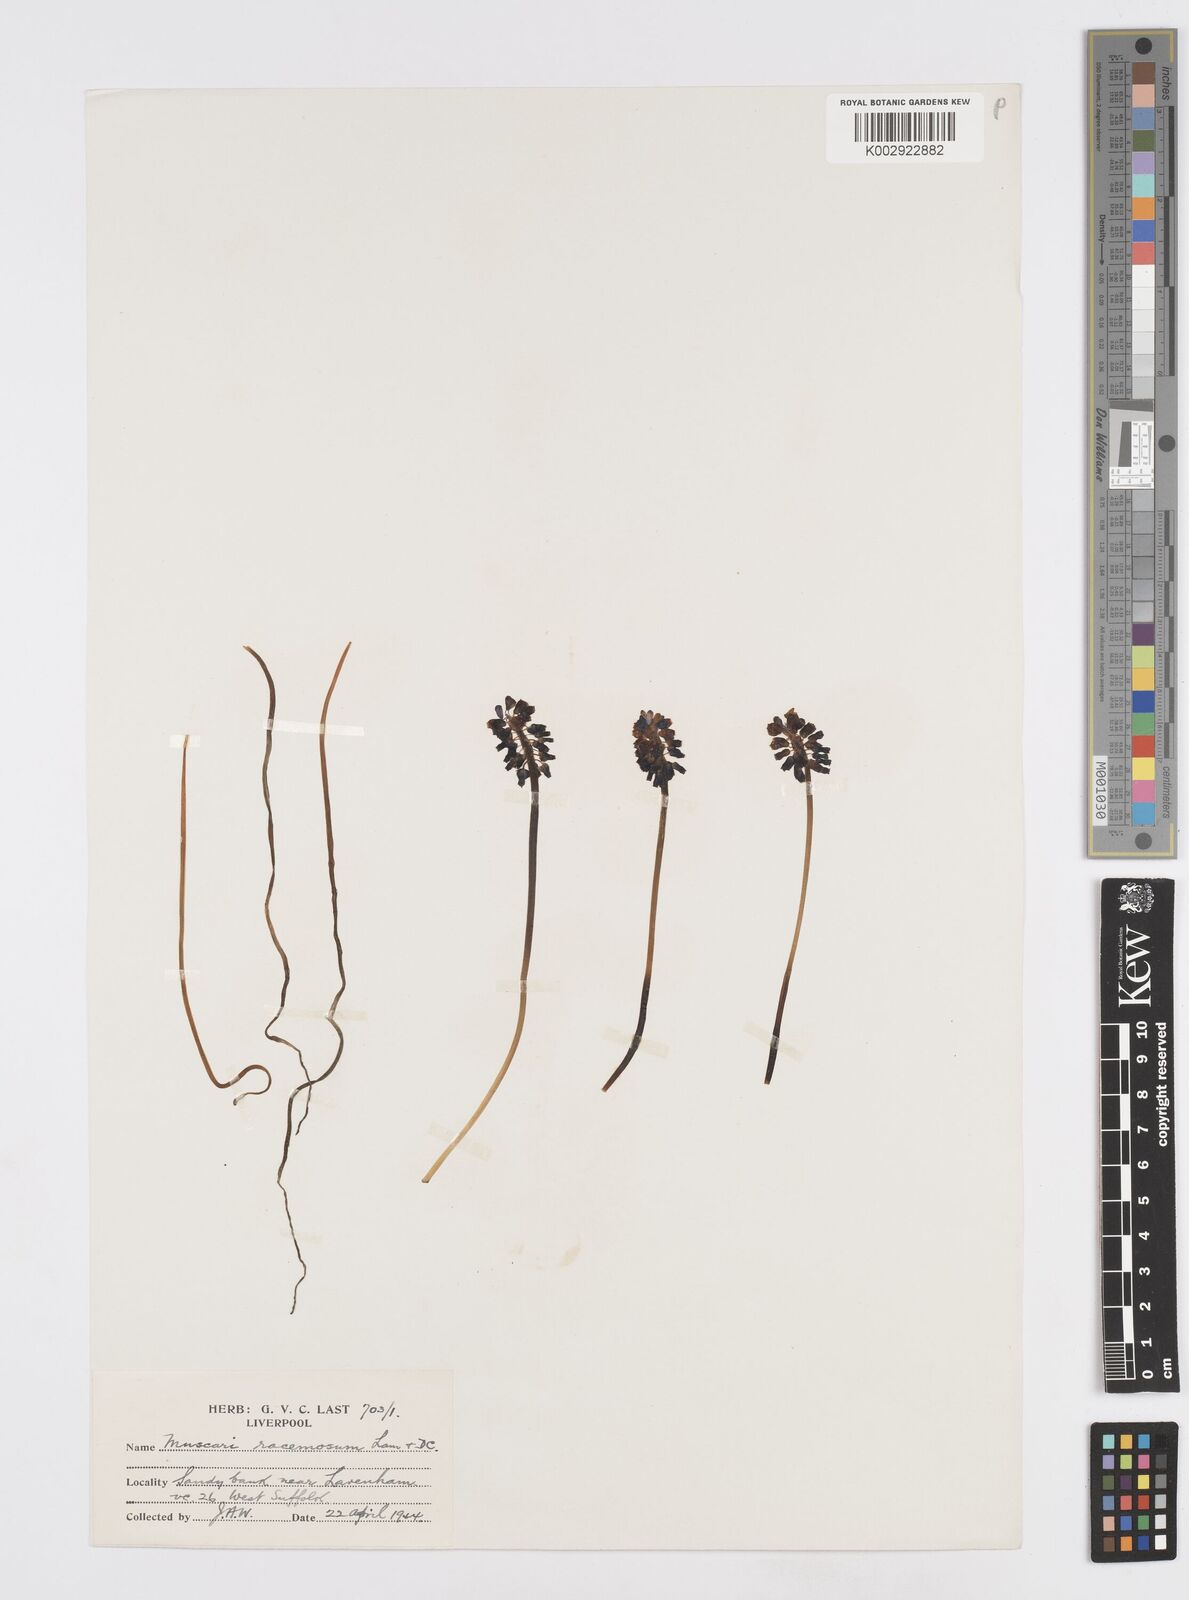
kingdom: Plantae
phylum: Tracheophyta
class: Liliopsida
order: Asparagales
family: Asparagaceae
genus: Muscarimia
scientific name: Muscarimia muscari
